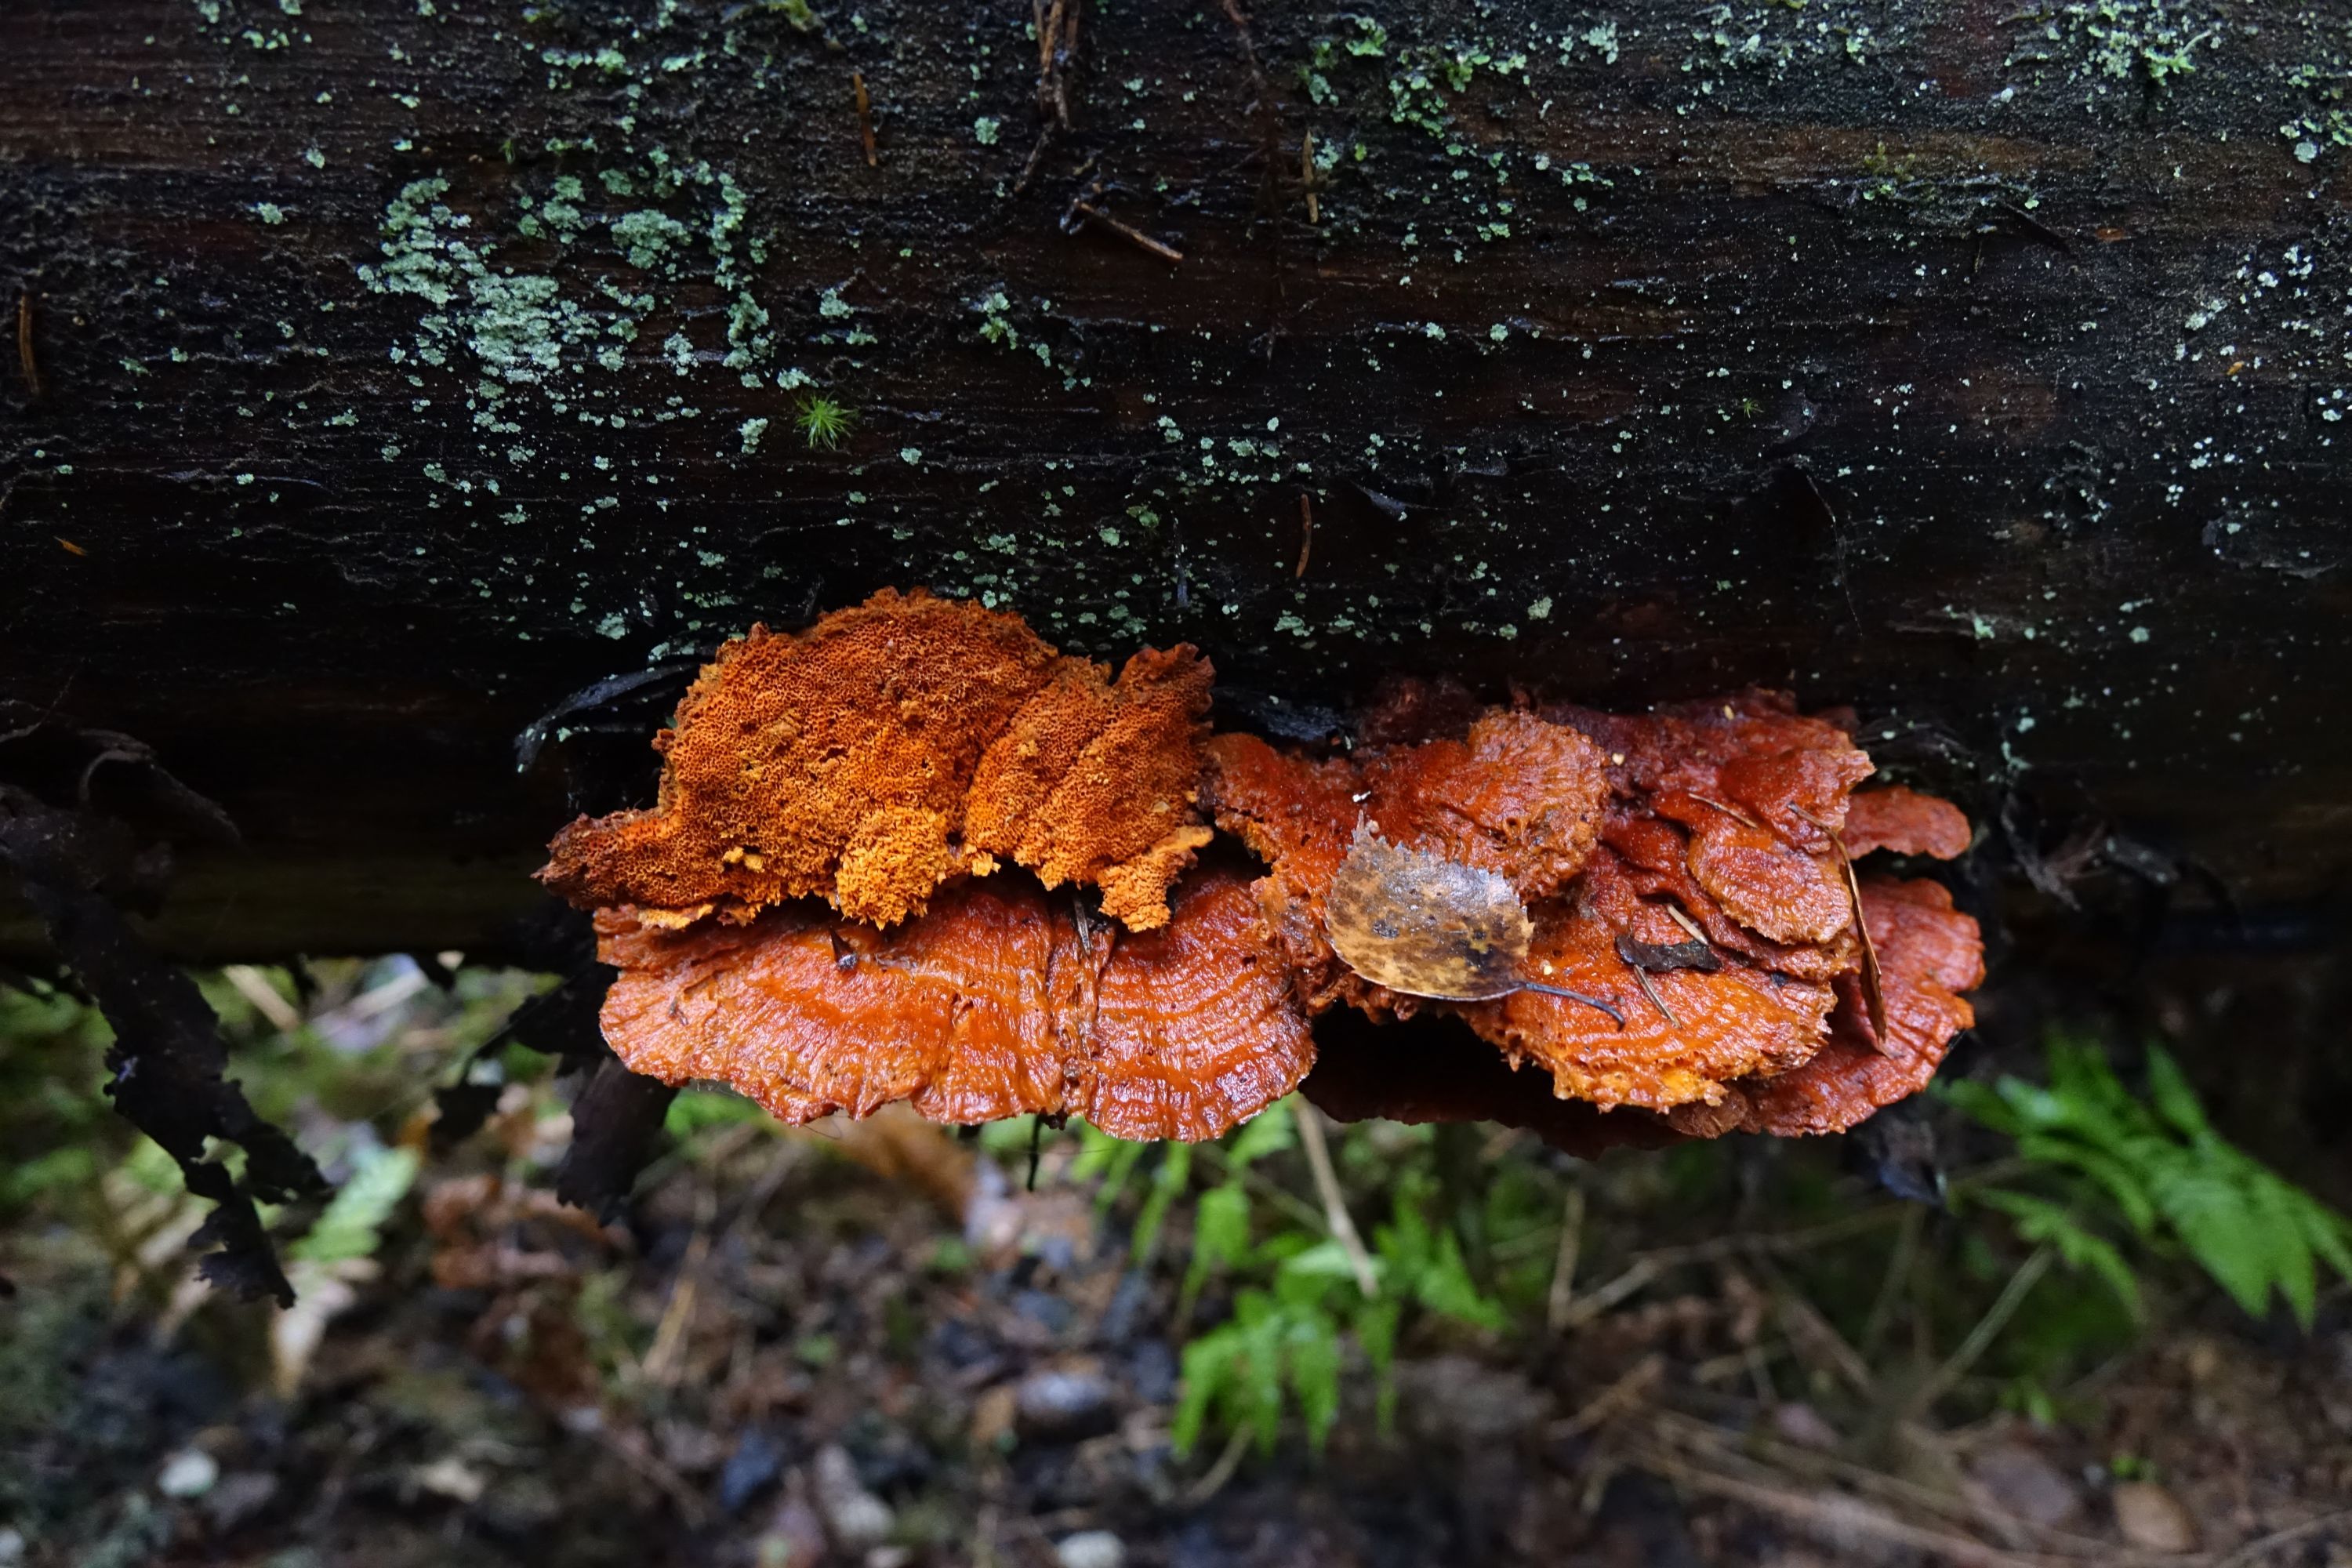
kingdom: Fungi
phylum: Basidiomycota
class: Agaricomycetes
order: Polyporales
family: Pycnoporellaceae
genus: Pycnoporellus
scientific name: Pycnoporellus fulgens
